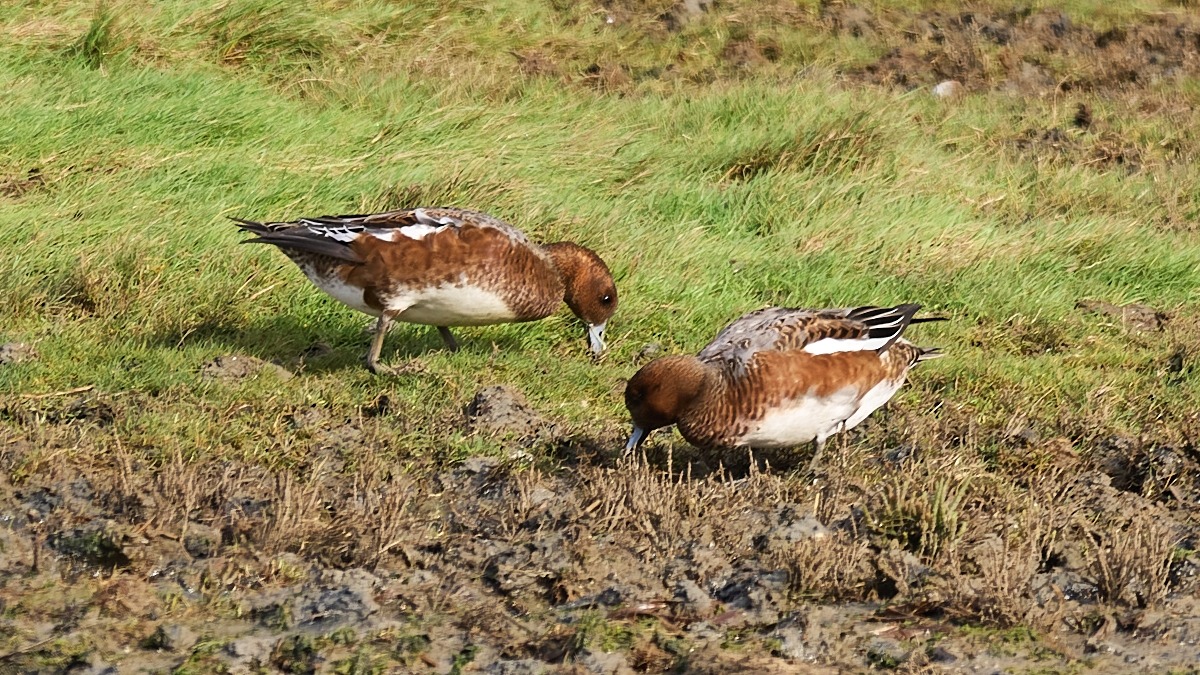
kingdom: Animalia
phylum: Chordata
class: Aves
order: Anseriformes
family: Anatidae
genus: Mareca
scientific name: Mareca penelope
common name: Pibeand
